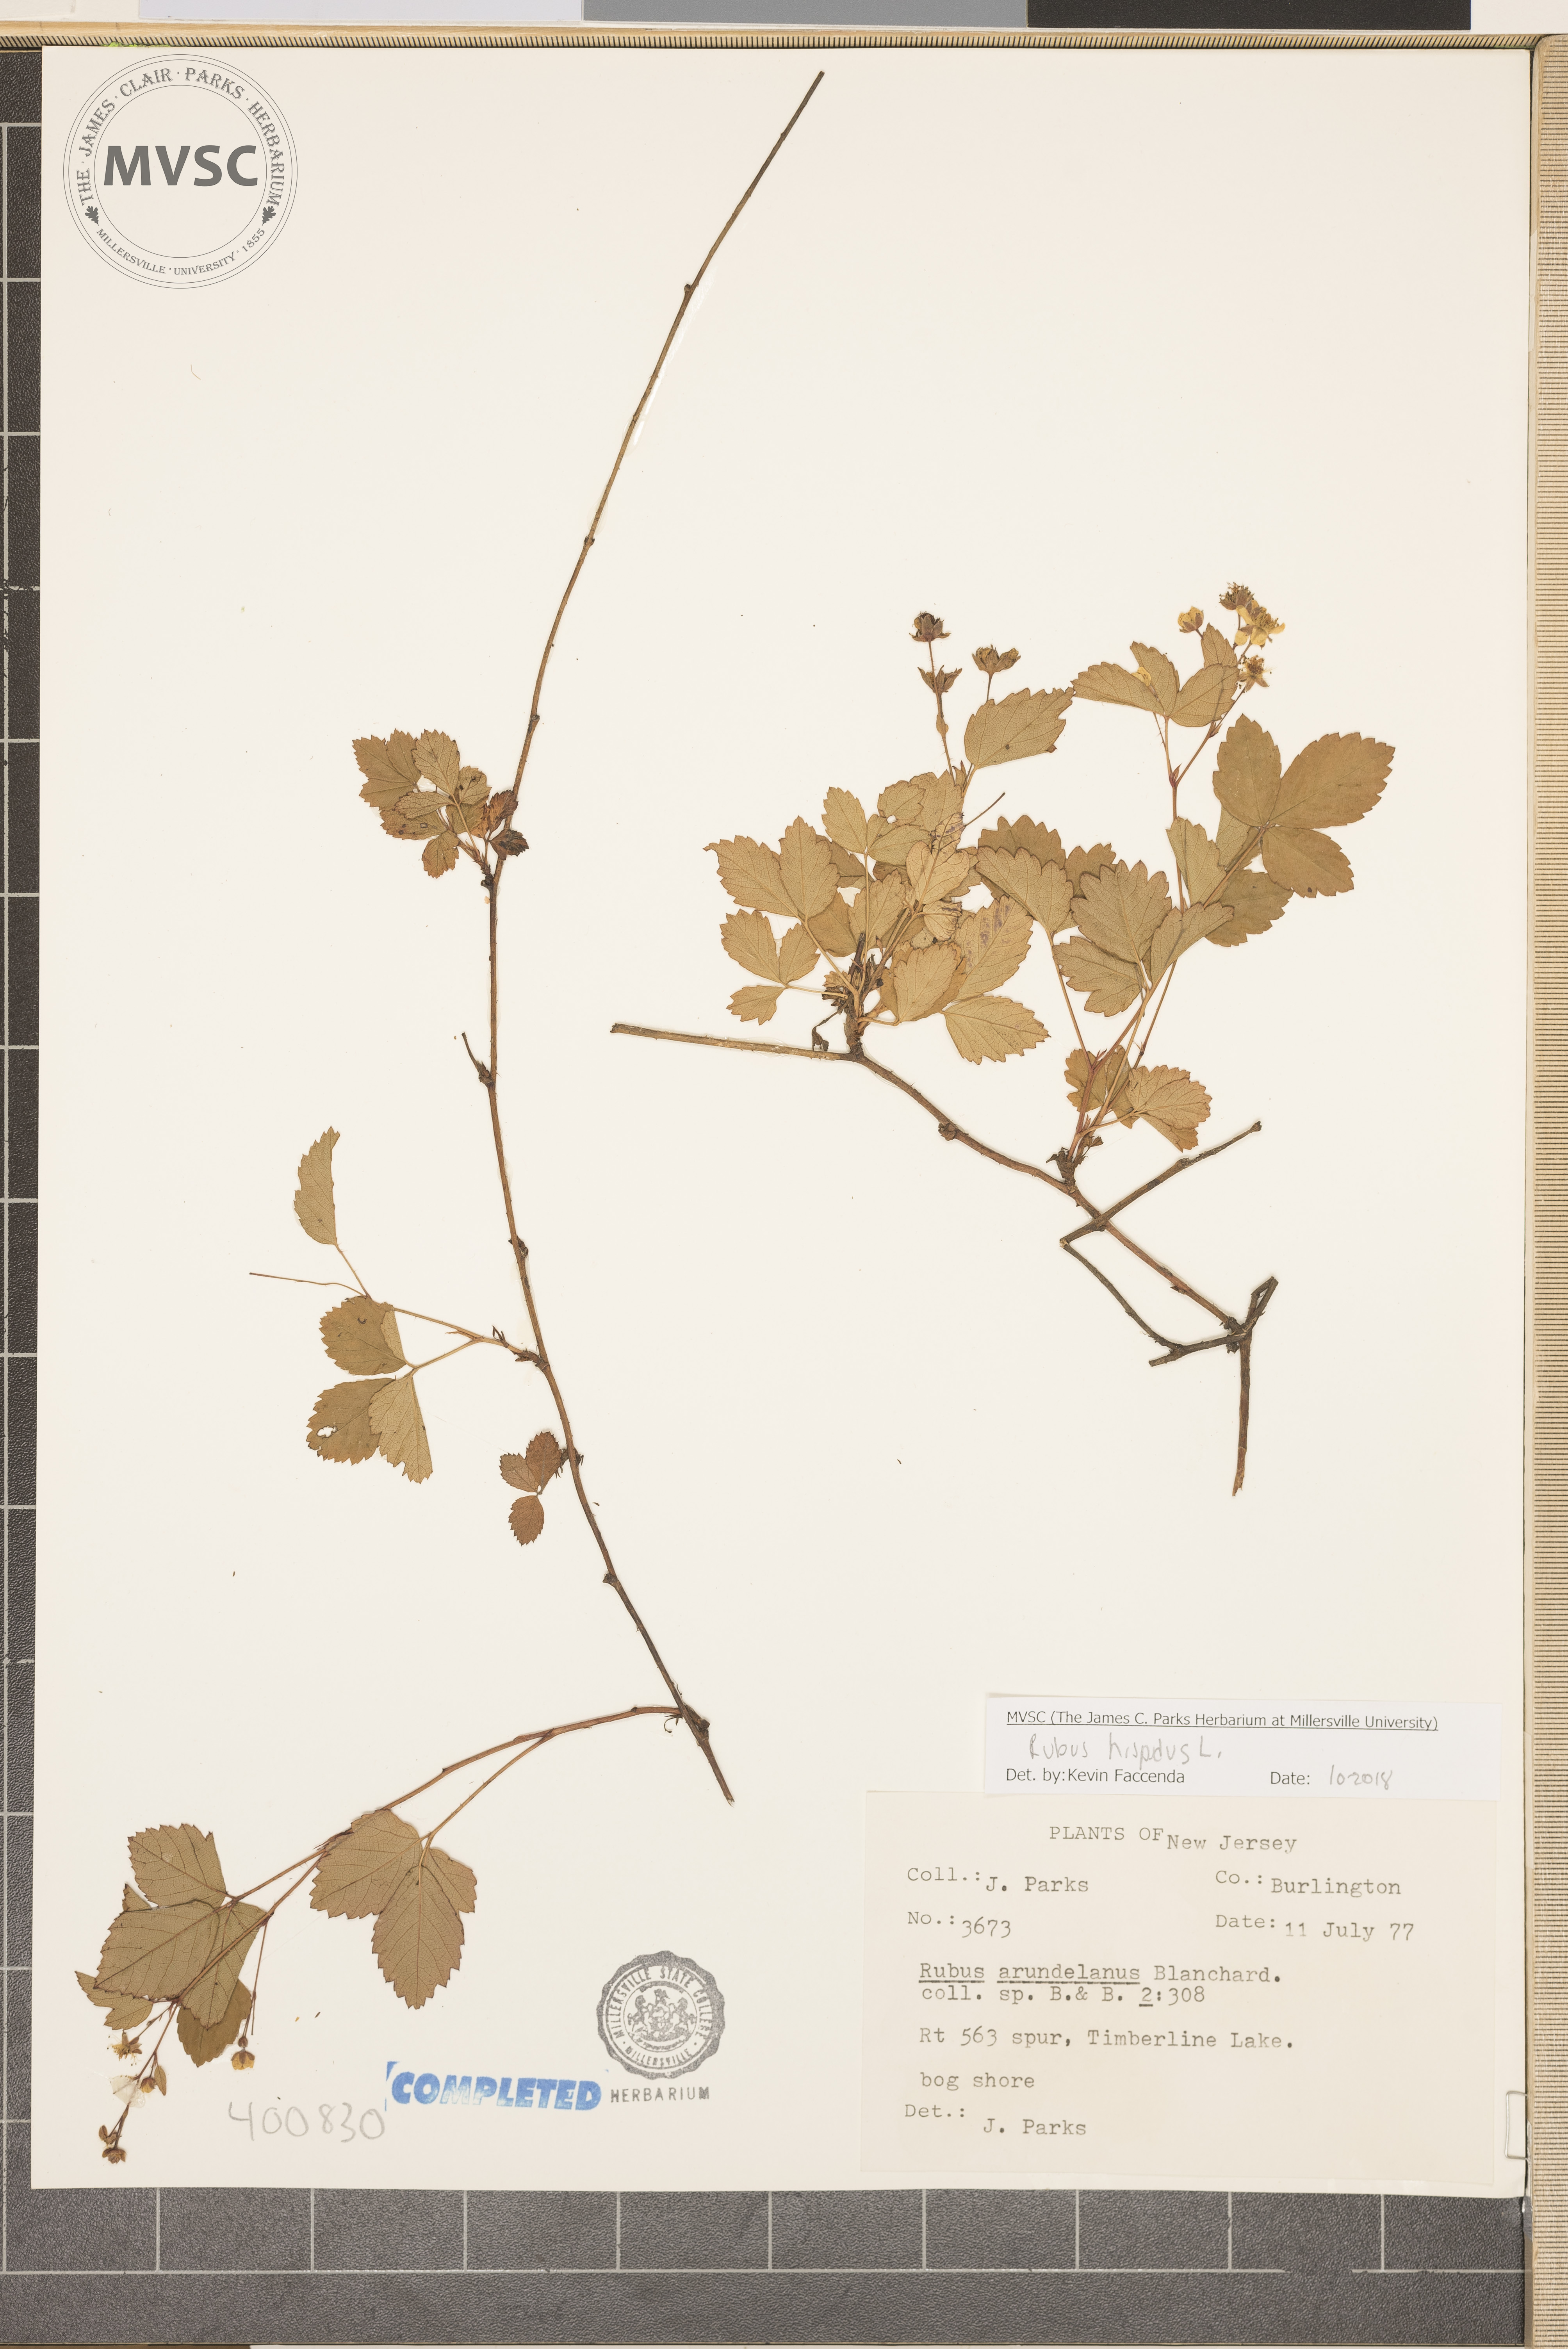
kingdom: Plantae
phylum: Tracheophyta
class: Magnoliopsida
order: Rosales
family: Rosaceae
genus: Rubus
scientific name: Rubus hispidus
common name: Running blackberry
